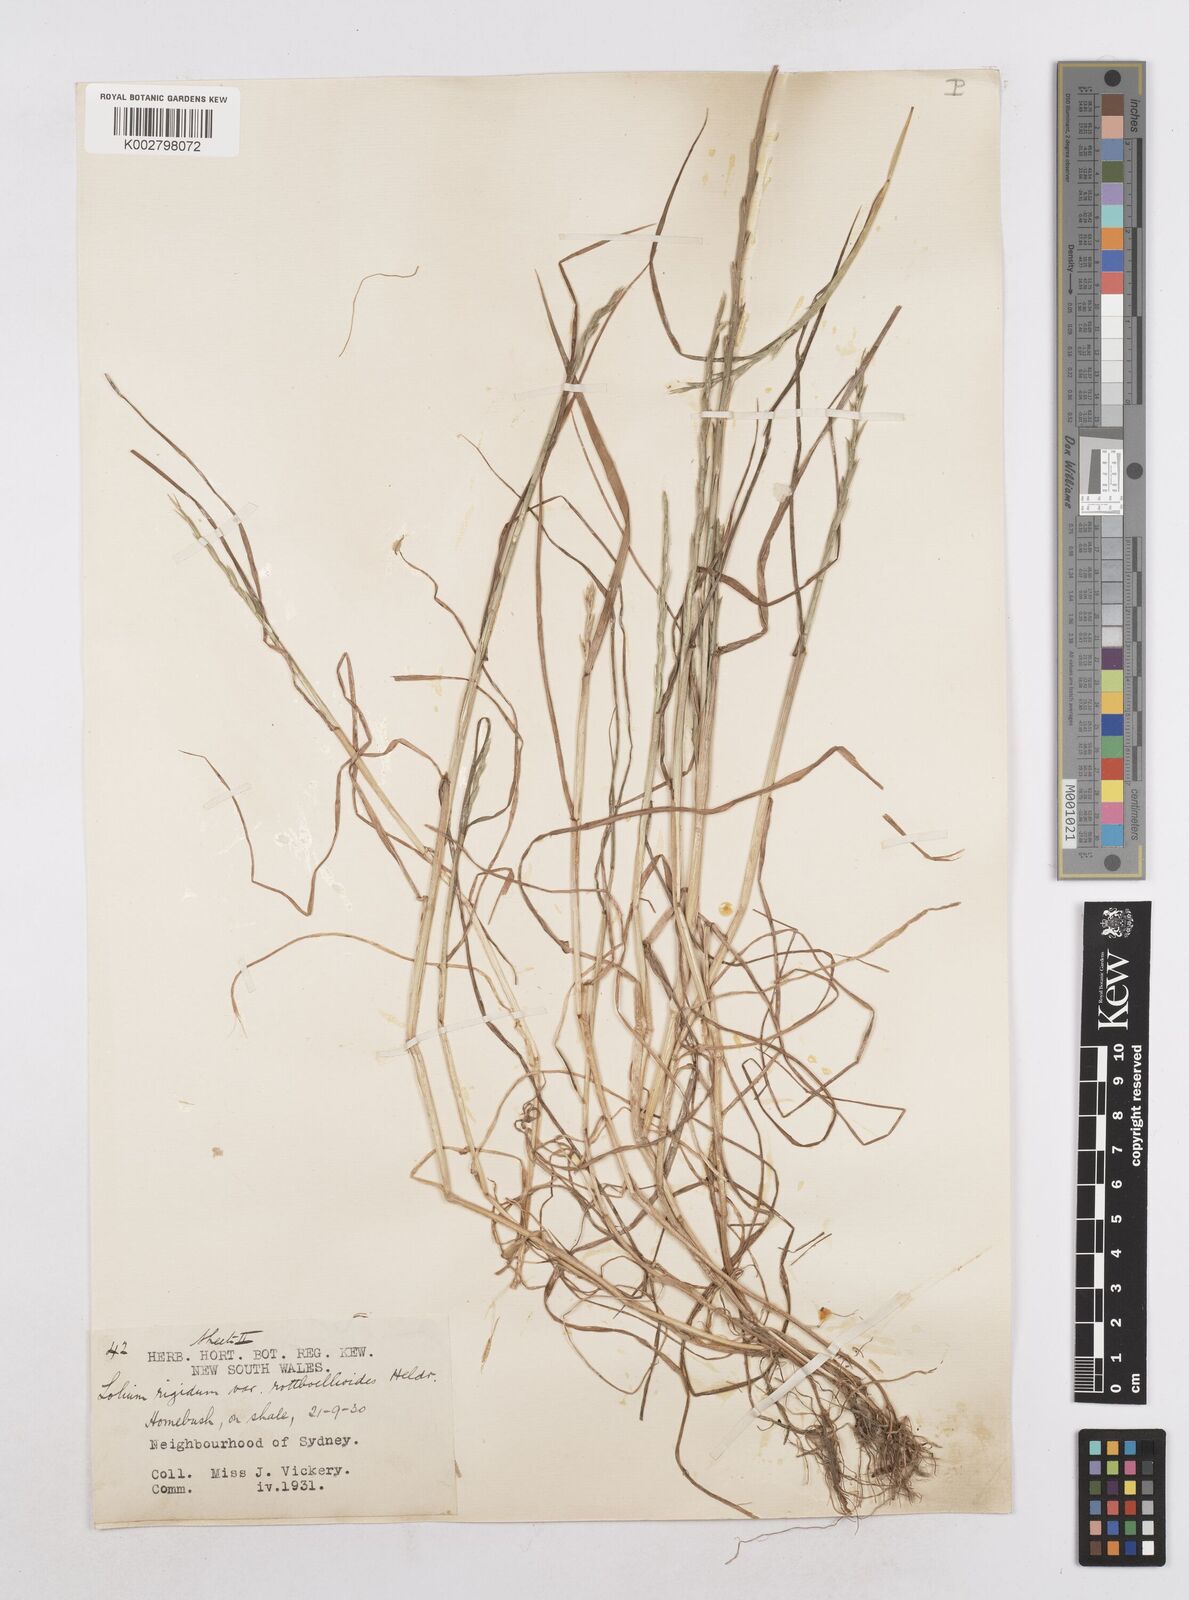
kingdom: Plantae
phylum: Tracheophyta
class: Liliopsida
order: Poales
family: Poaceae
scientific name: Poaceae
